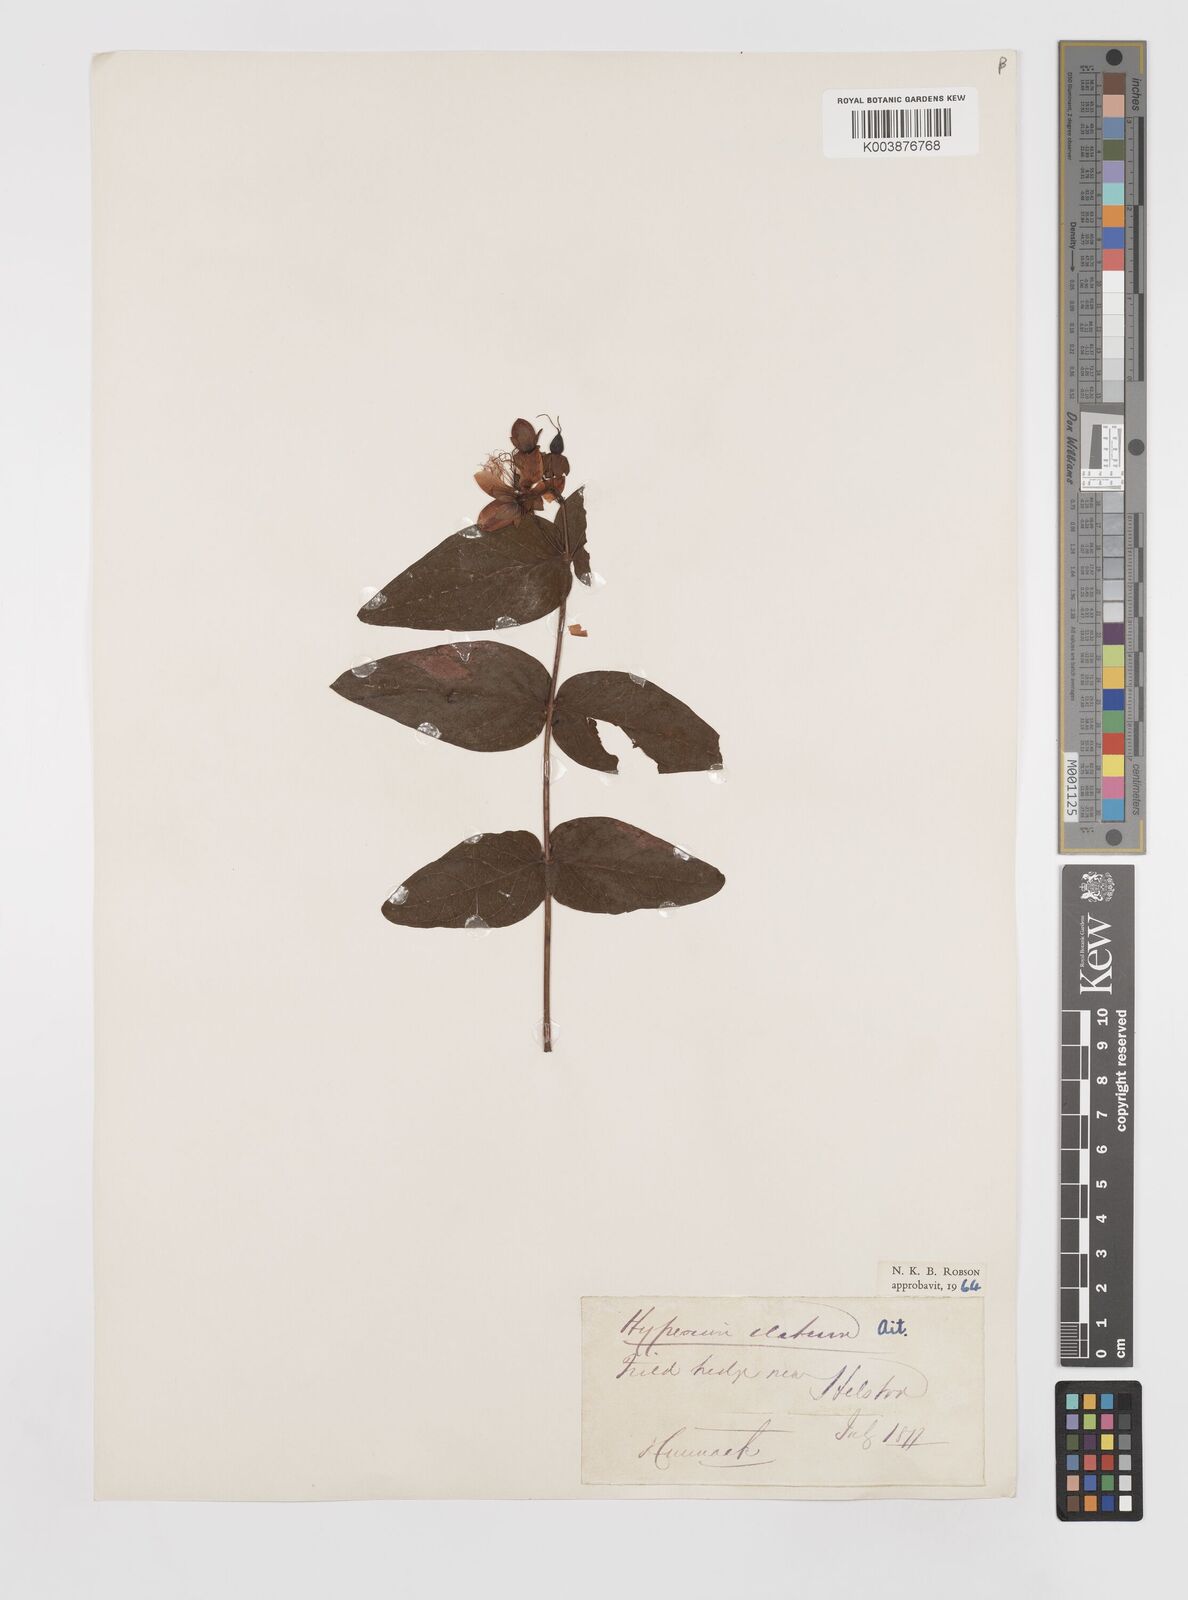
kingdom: Plantae
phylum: Tracheophyta
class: Magnoliopsida
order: Malpighiales
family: Hypericaceae
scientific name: Hypericaceae
